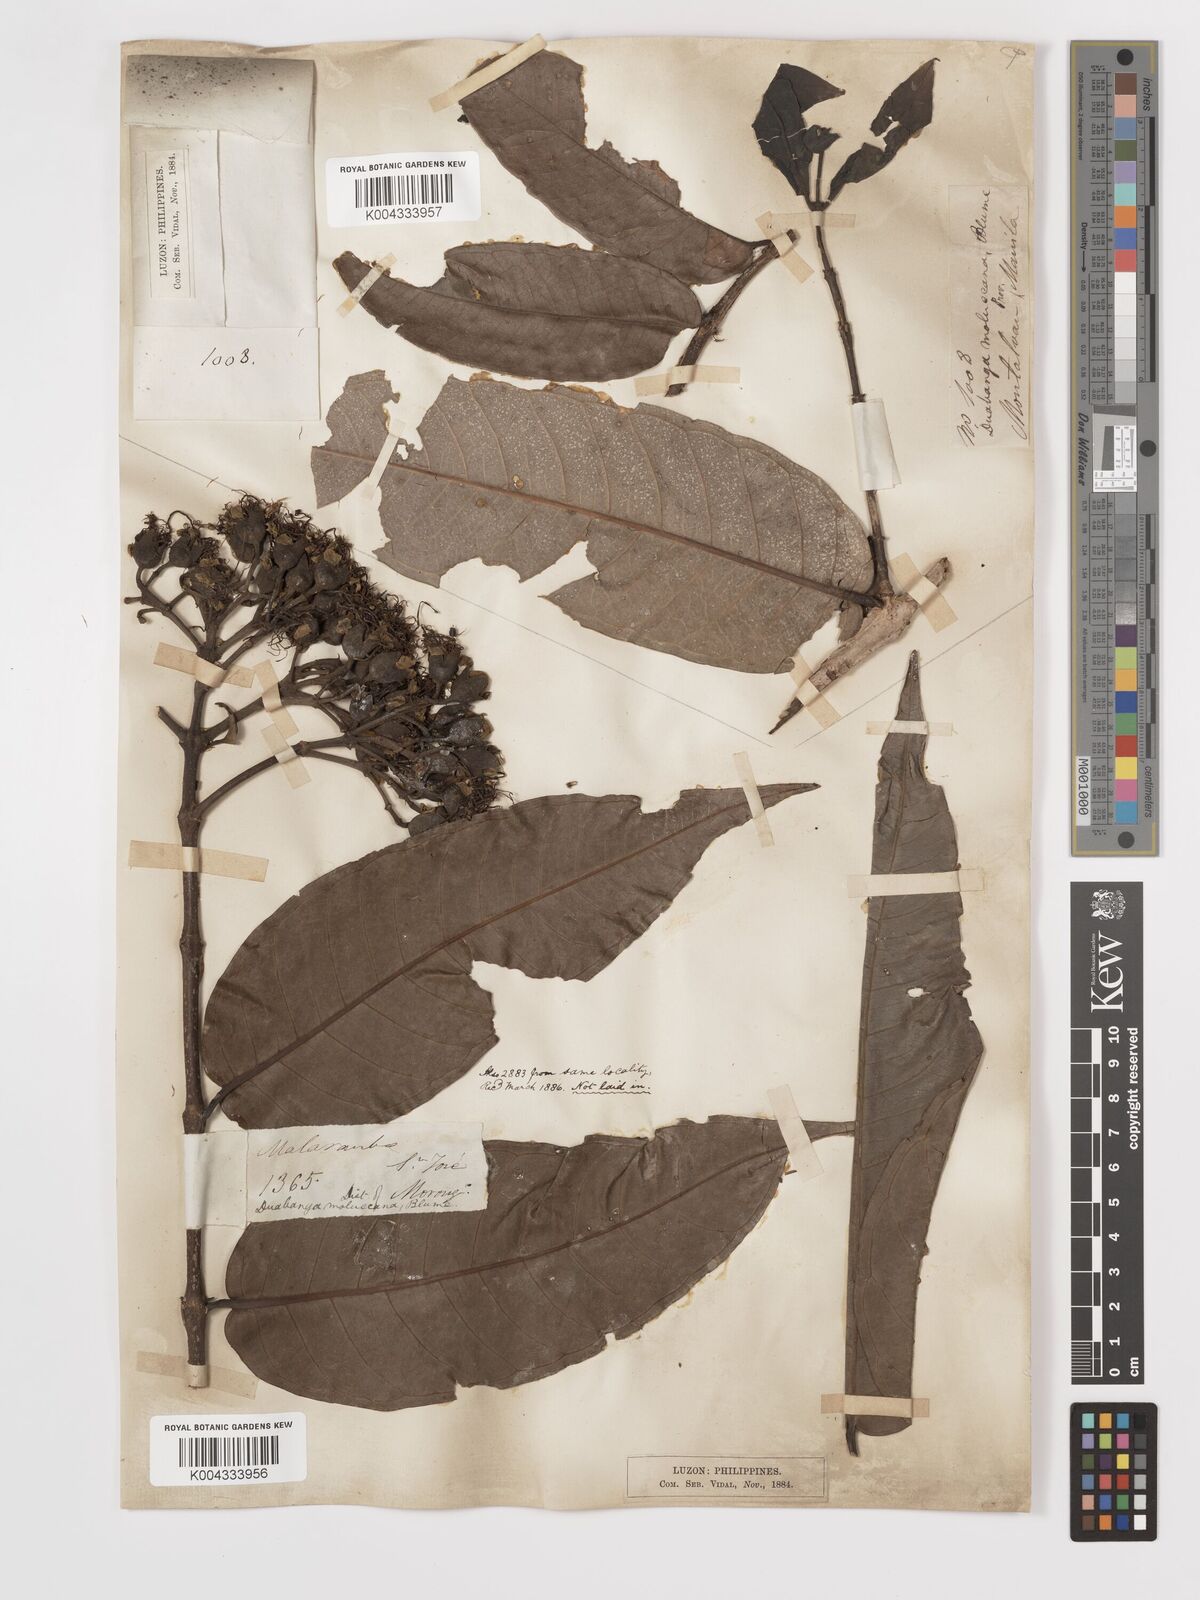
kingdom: Plantae
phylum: Tracheophyta
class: Magnoliopsida
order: Myrtales
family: Lythraceae
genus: Duabanga
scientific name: Duabanga moluccana
